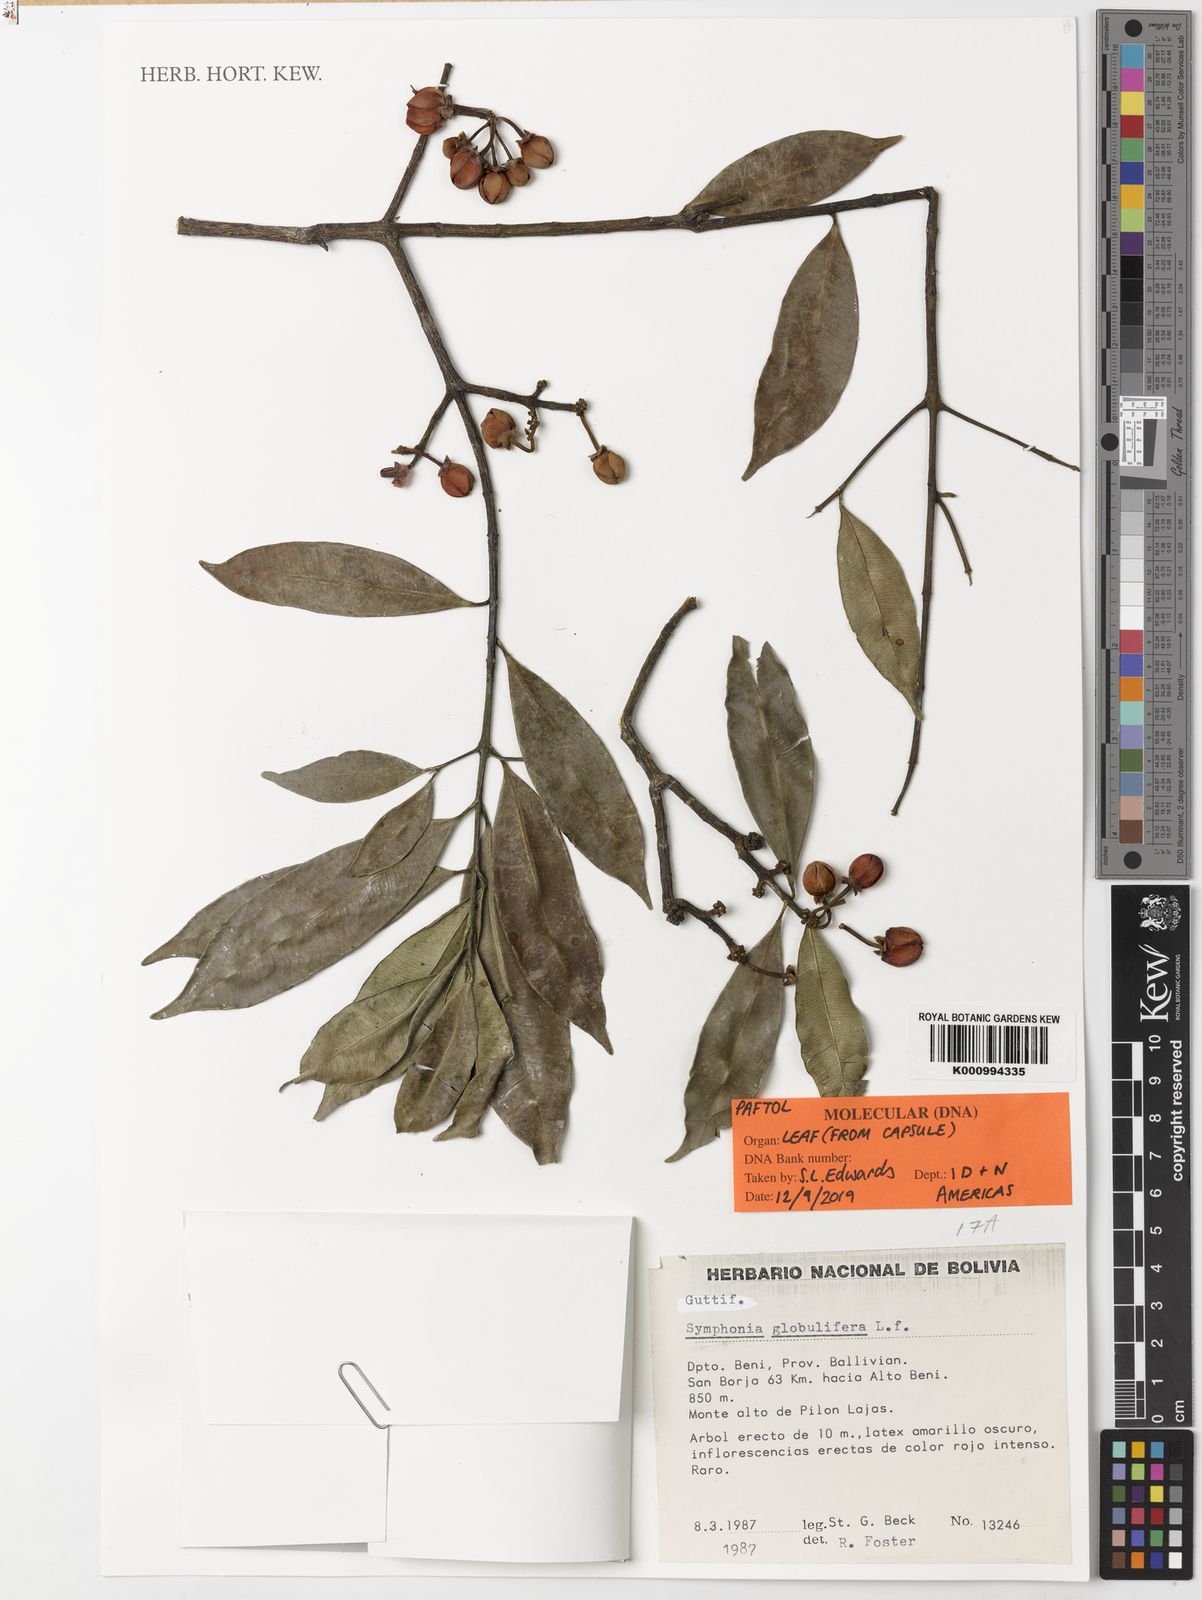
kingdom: Plantae
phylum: Tracheophyta
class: Magnoliopsida
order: Malpighiales
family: Clusiaceae
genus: Symphonia
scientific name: Symphonia globulifera
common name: Boarwood
